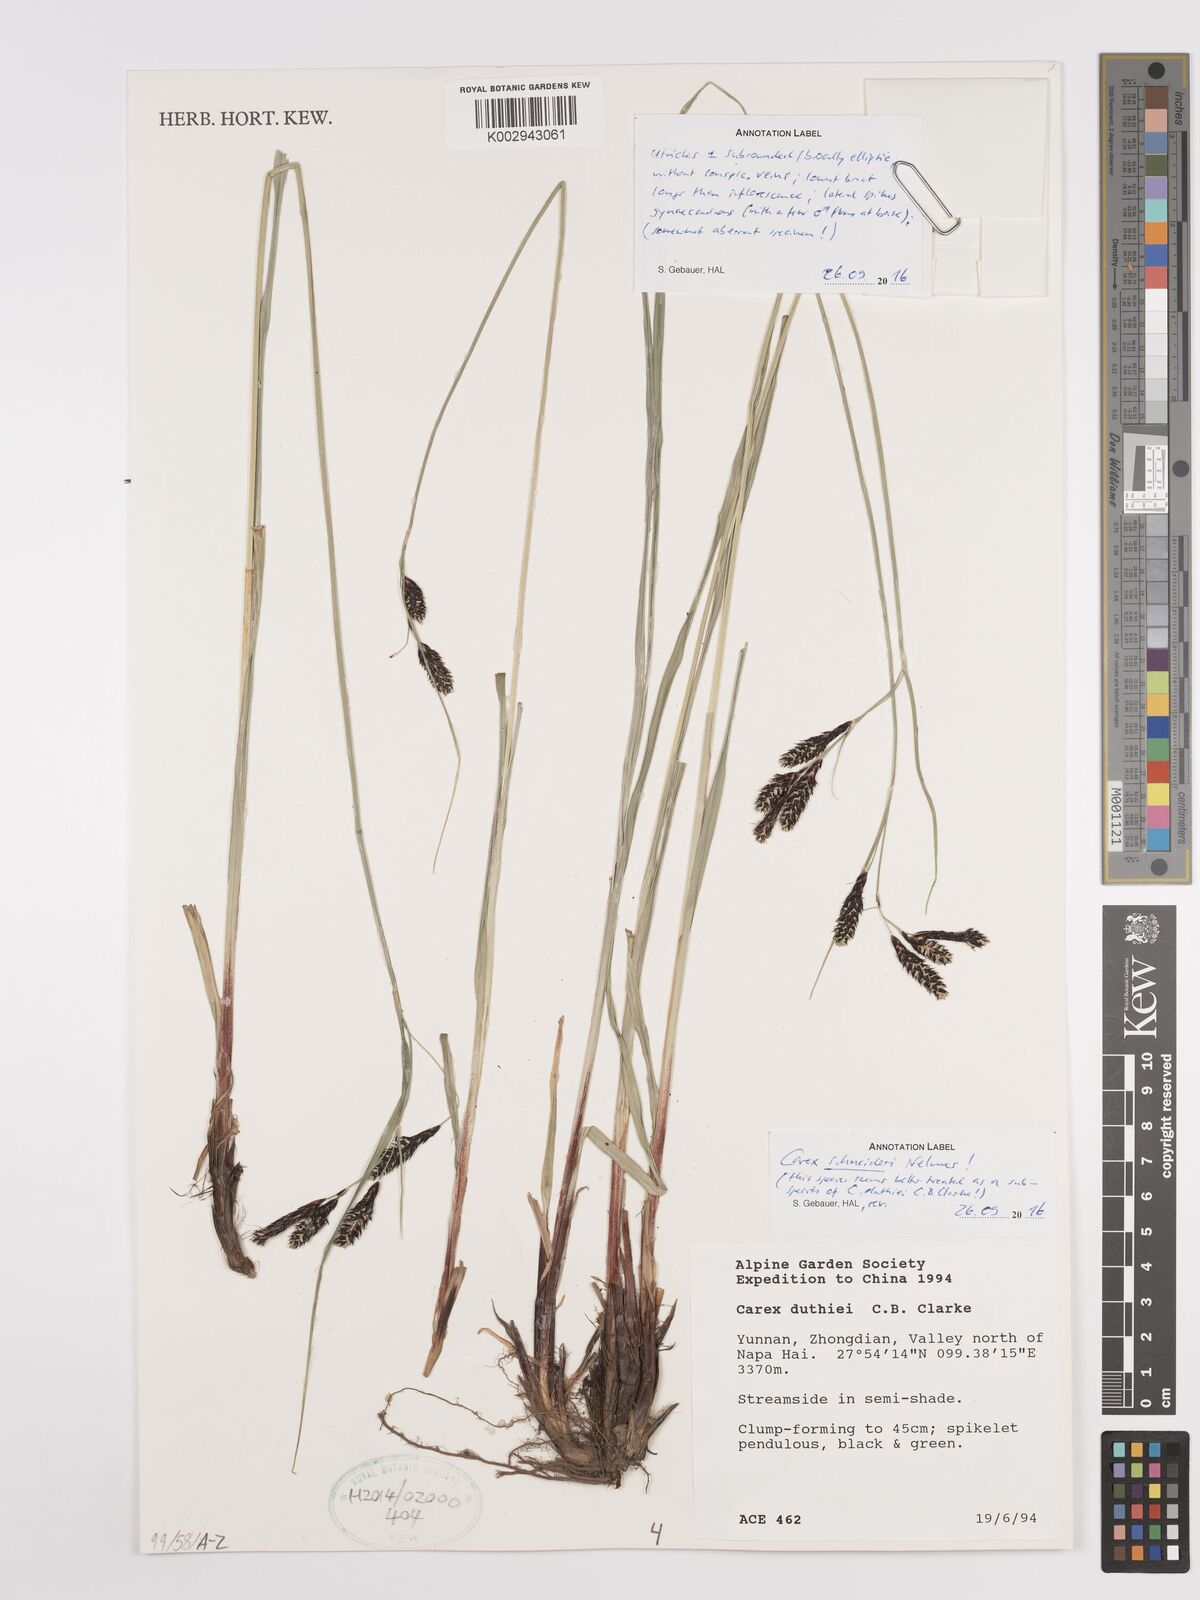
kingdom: Plantae
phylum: Tracheophyta
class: Liliopsida
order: Poales
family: Cyperaceae
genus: Carex
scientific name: Carex schneideri
